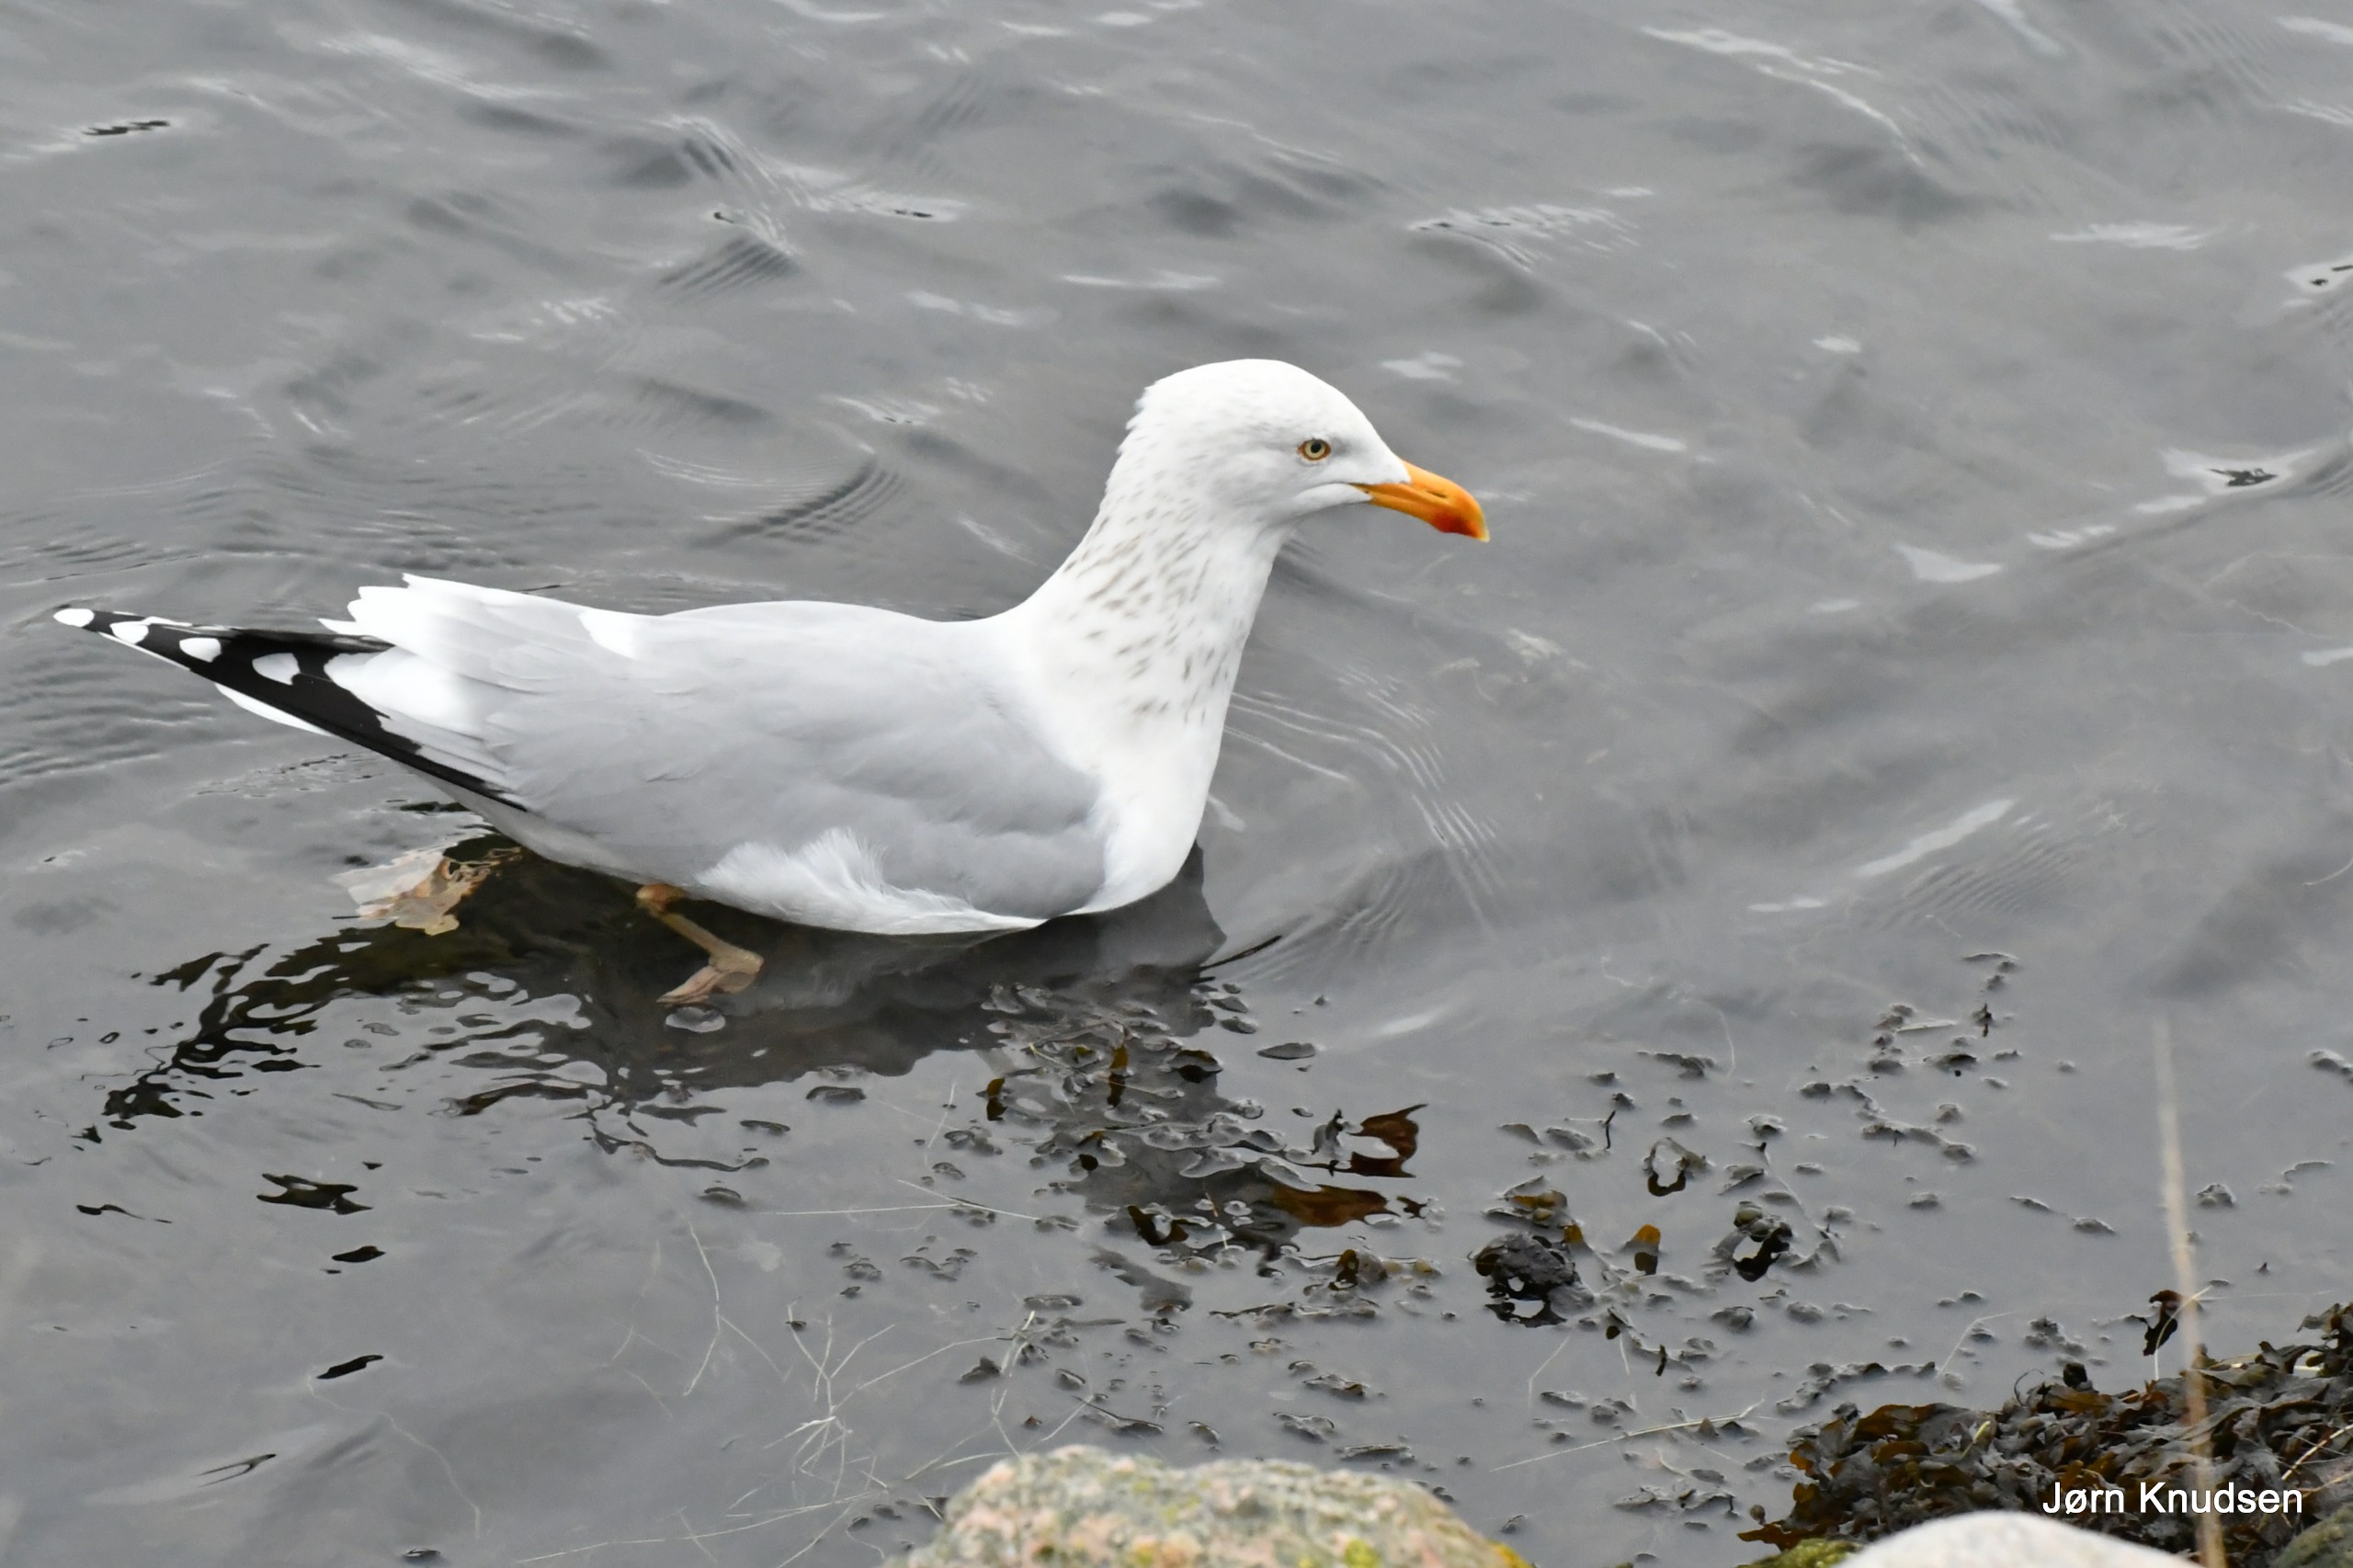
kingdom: Animalia
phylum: Chordata
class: Aves
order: Charadriiformes
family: Laridae
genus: Larus
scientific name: Larus argentatus
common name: Sølvmåge
